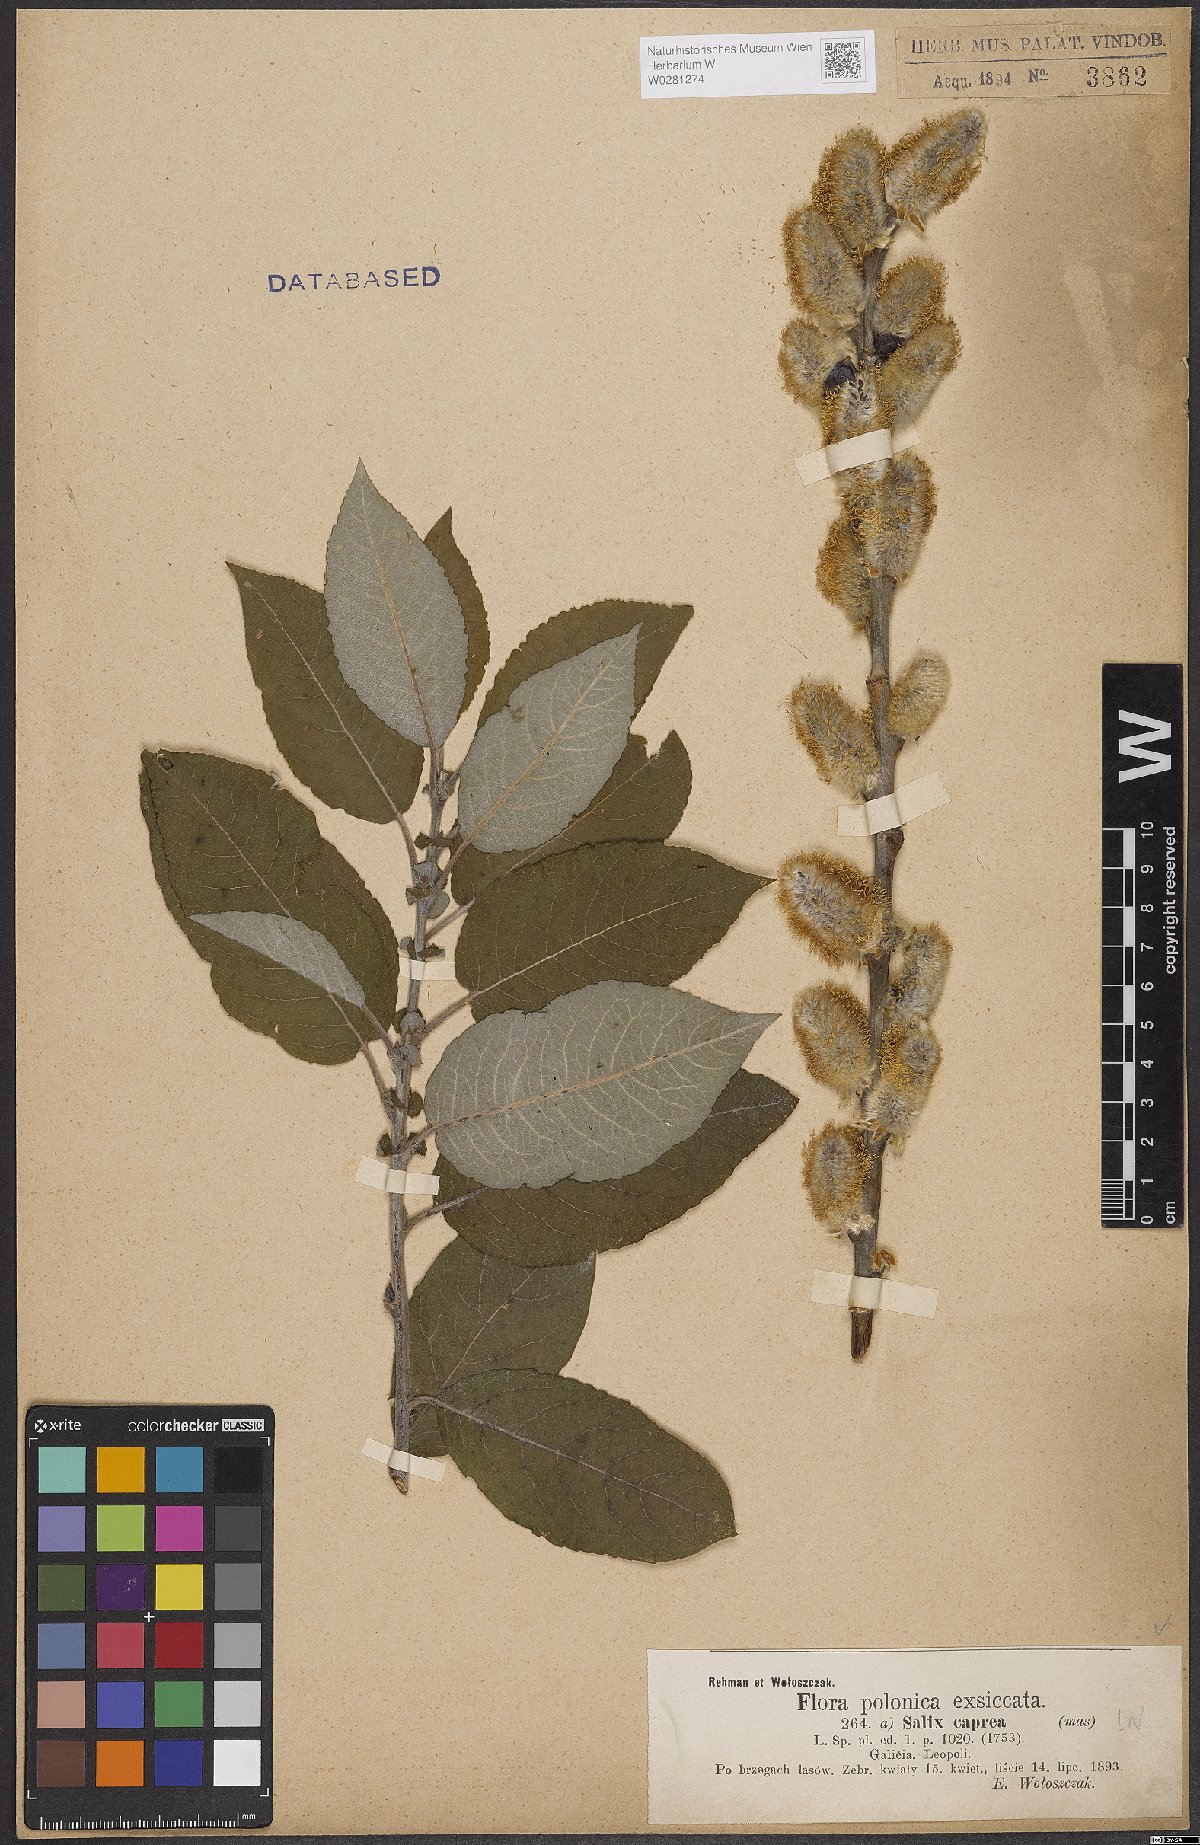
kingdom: Plantae
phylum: Tracheophyta
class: Magnoliopsida
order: Malpighiales
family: Salicaceae
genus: Salix
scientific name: Salix caprea
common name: Goat willow
